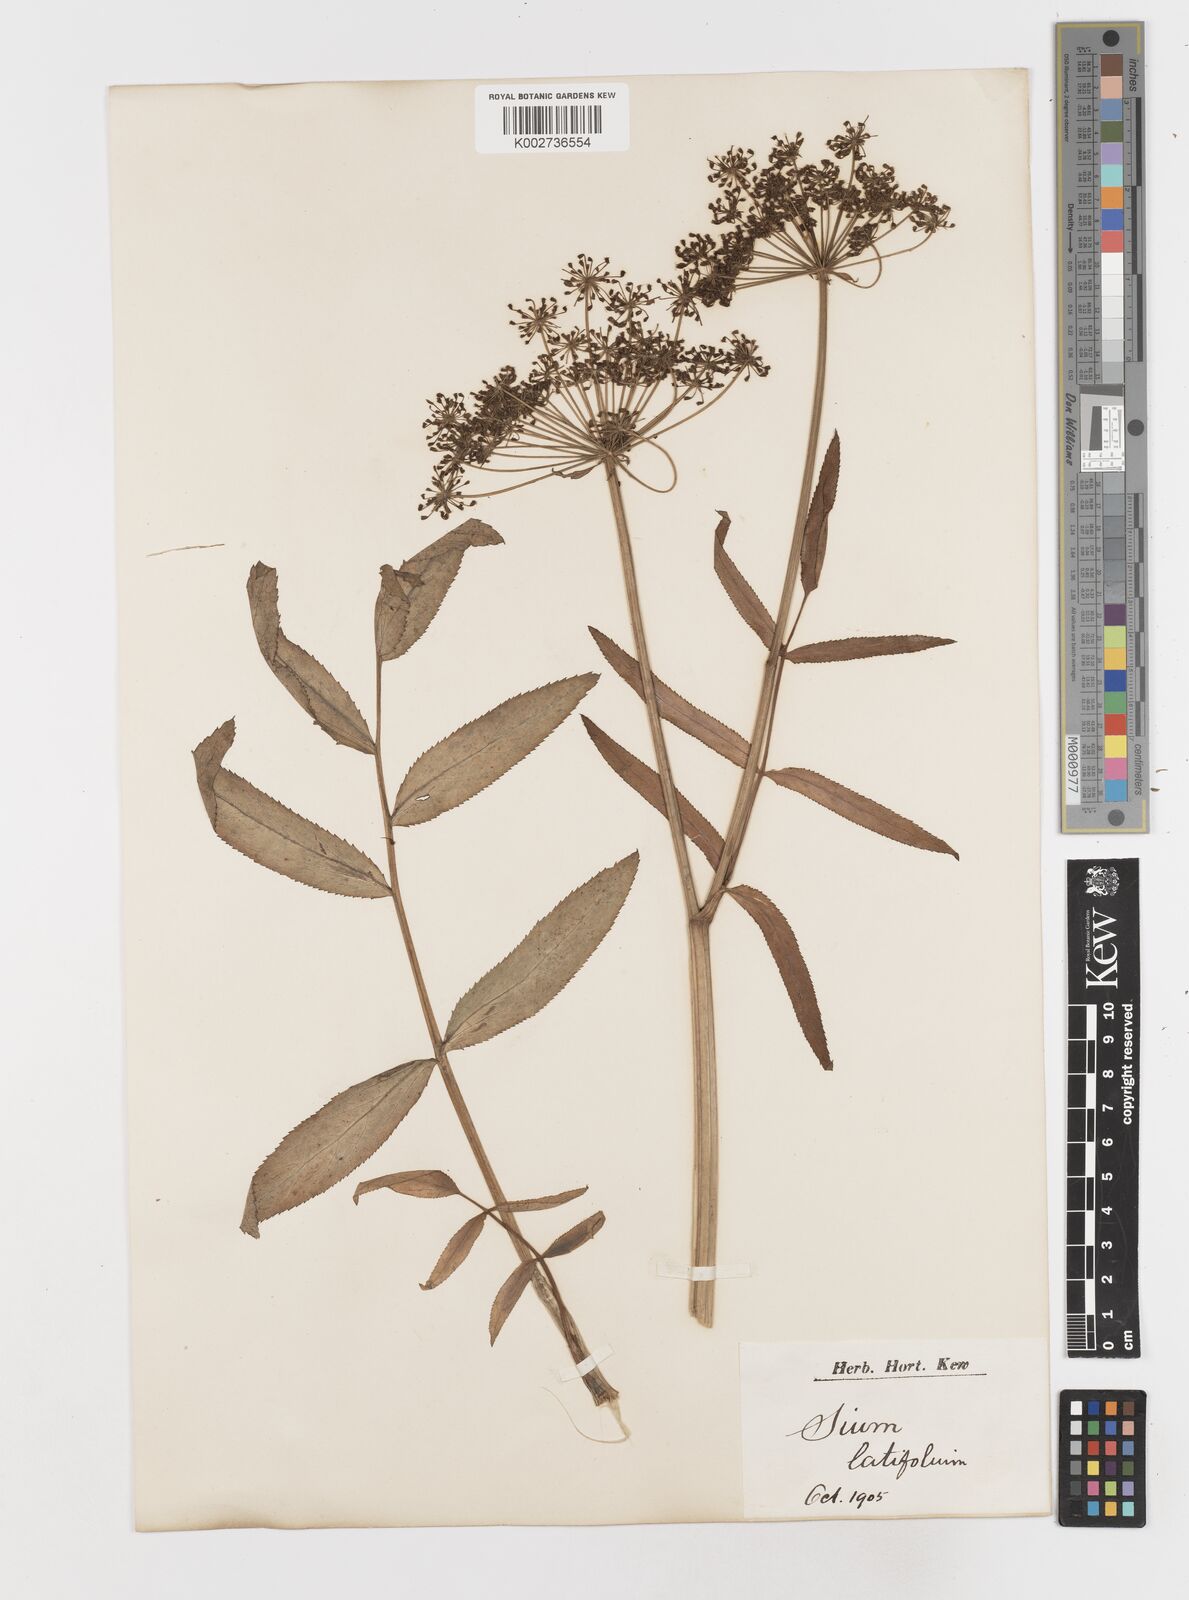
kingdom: Plantae
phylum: Tracheophyta
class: Magnoliopsida
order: Apiales
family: Apiaceae
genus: Sium
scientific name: Sium latifolium
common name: Greater water-parsnip
